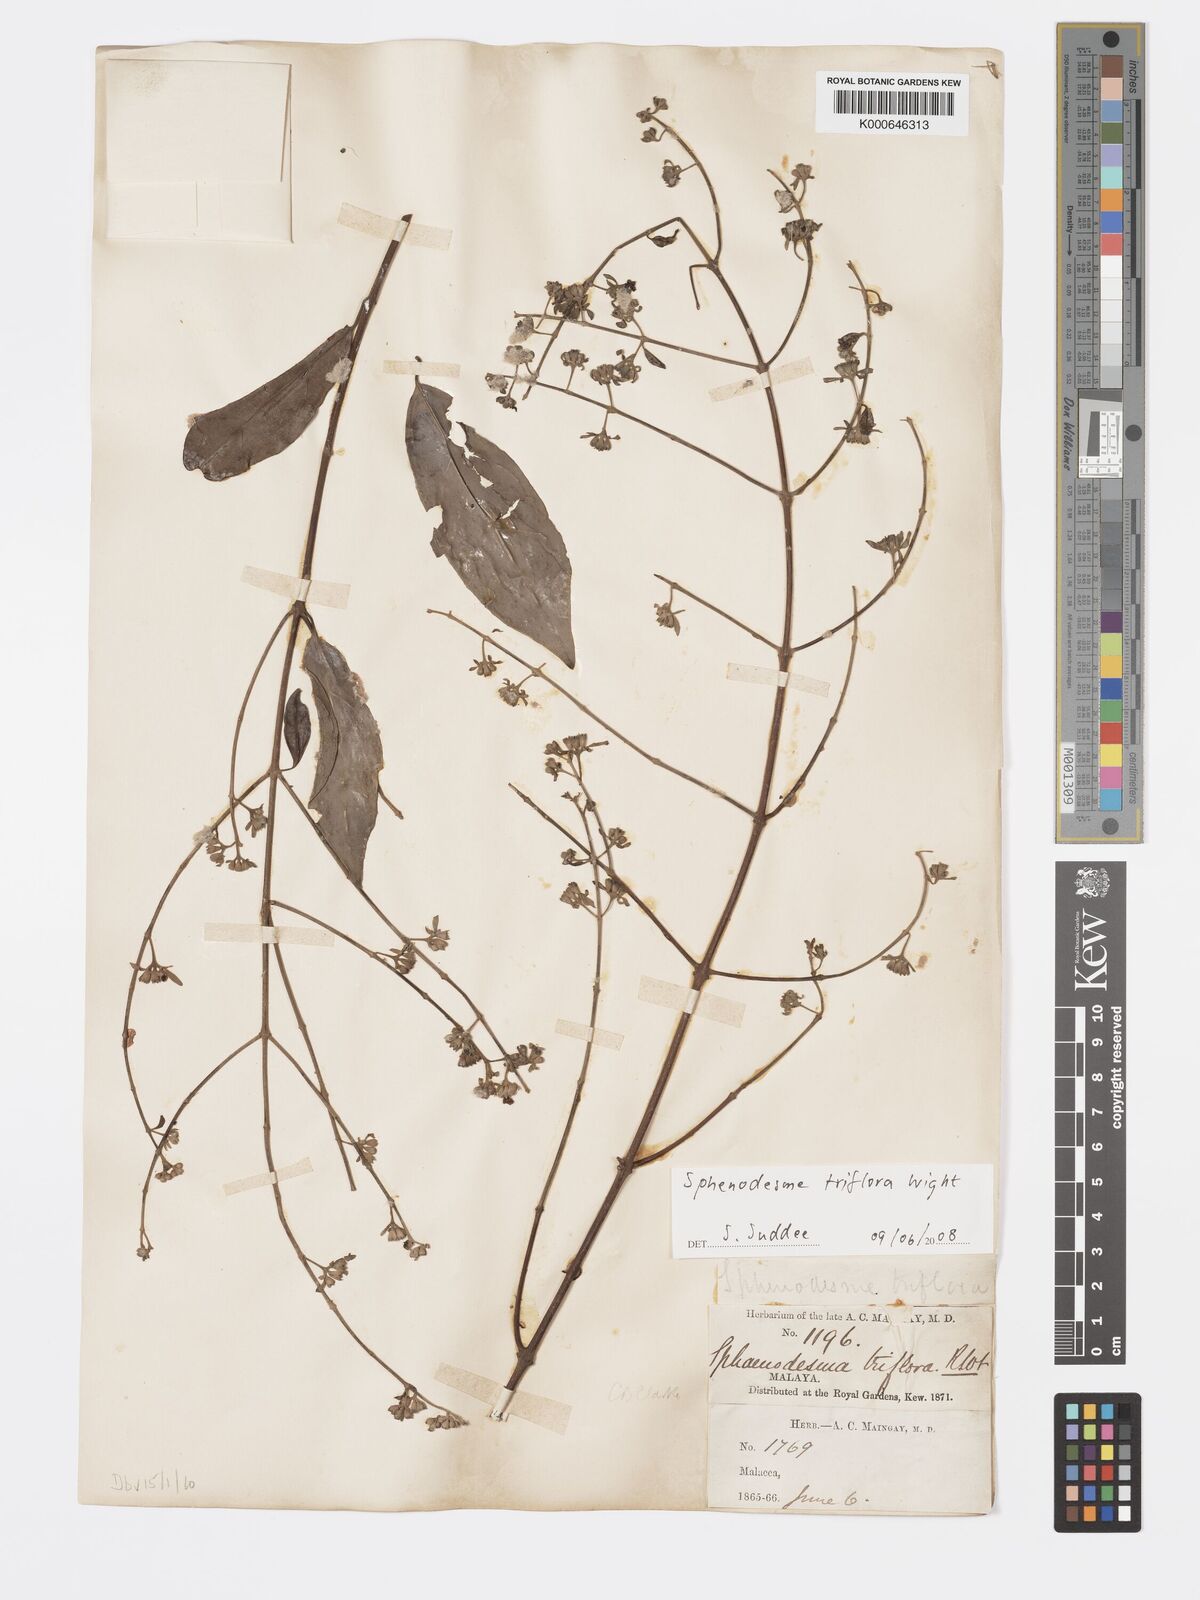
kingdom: Plantae
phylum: Tracheophyta
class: Magnoliopsida
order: Lamiales
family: Lamiaceae
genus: Sphenodesme
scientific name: Sphenodesme
